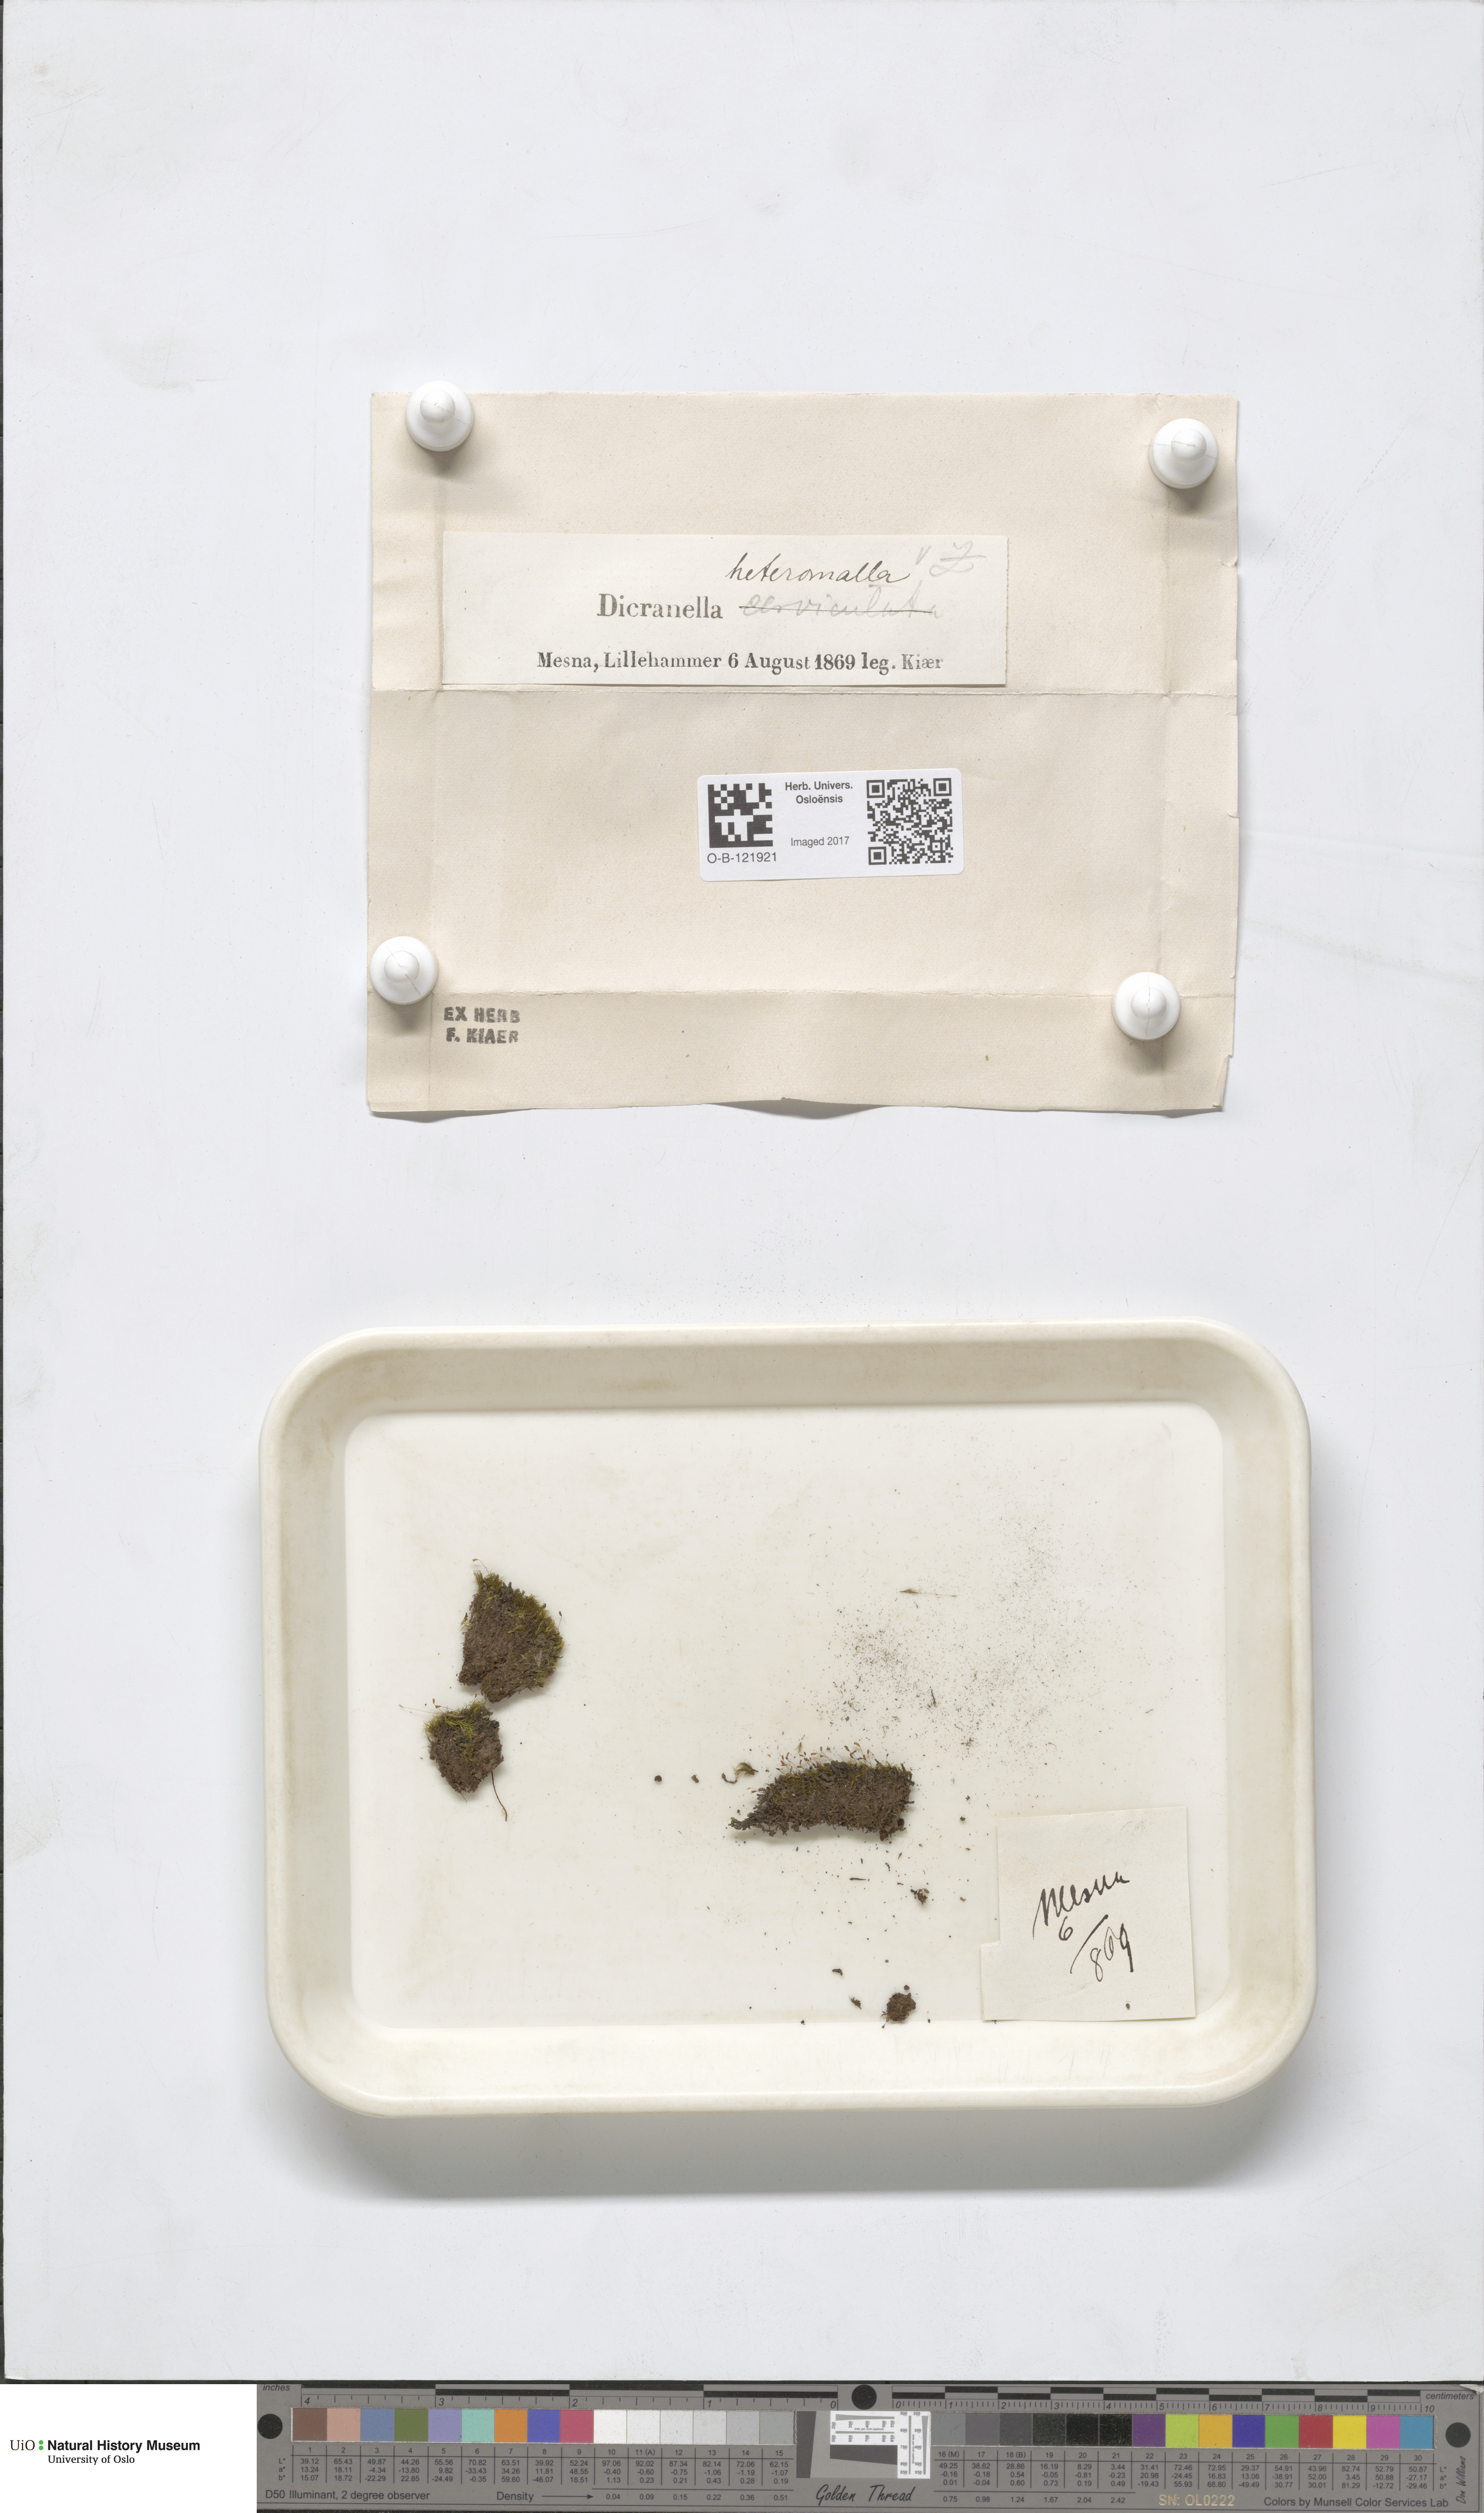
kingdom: Plantae
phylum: Bryophyta
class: Bryopsida
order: Dicranales
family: Dicranellaceae
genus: Dicranella
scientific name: Dicranella heteromalla
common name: Silky forklet moss
